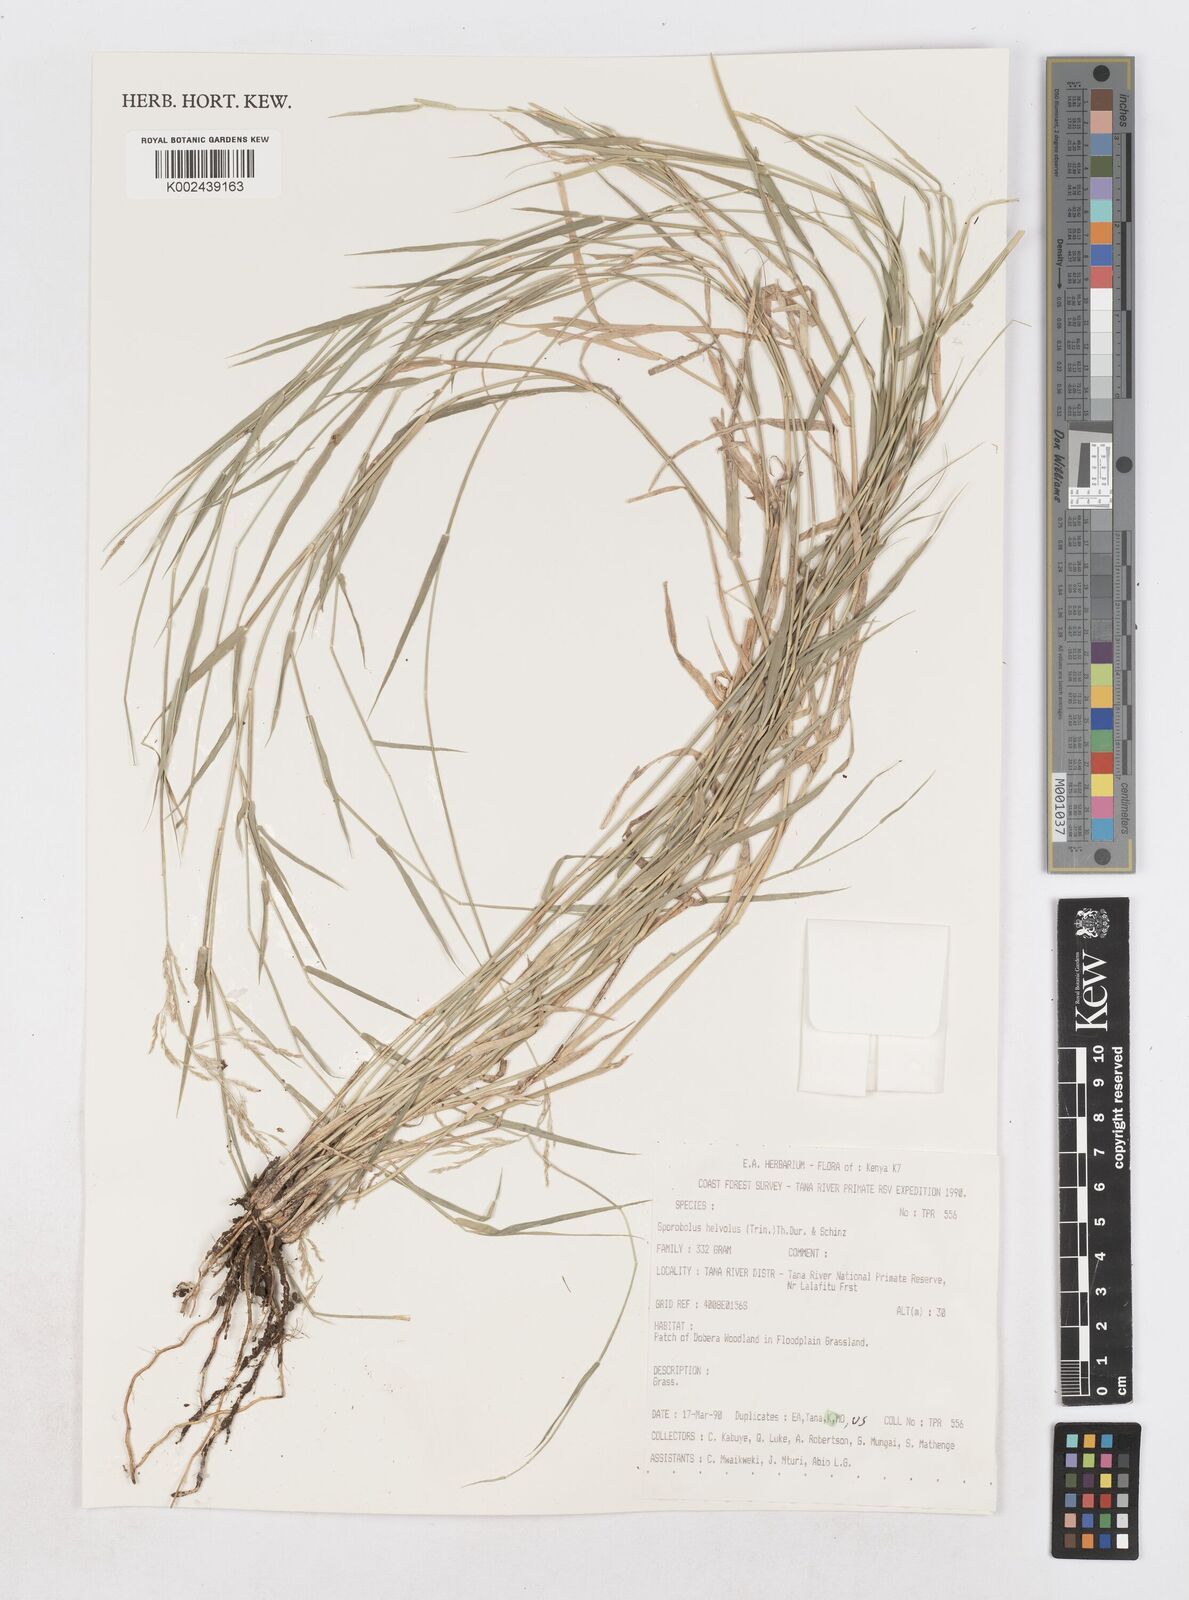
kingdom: Plantae
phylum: Tracheophyta
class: Liliopsida
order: Poales
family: Poaceae
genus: Sporobolus
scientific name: Sporobolus helvolus
